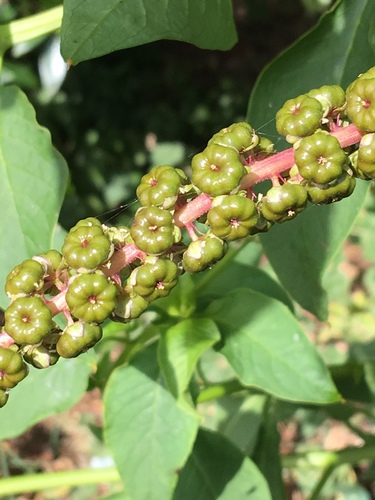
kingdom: Plantae
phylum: Tracheophyta
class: Magnoliopsida
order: Caryophyllales
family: Phytolaccaceae
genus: Phytolacca
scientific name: Phytolacca heterotepala
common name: Mexican pokeweed
